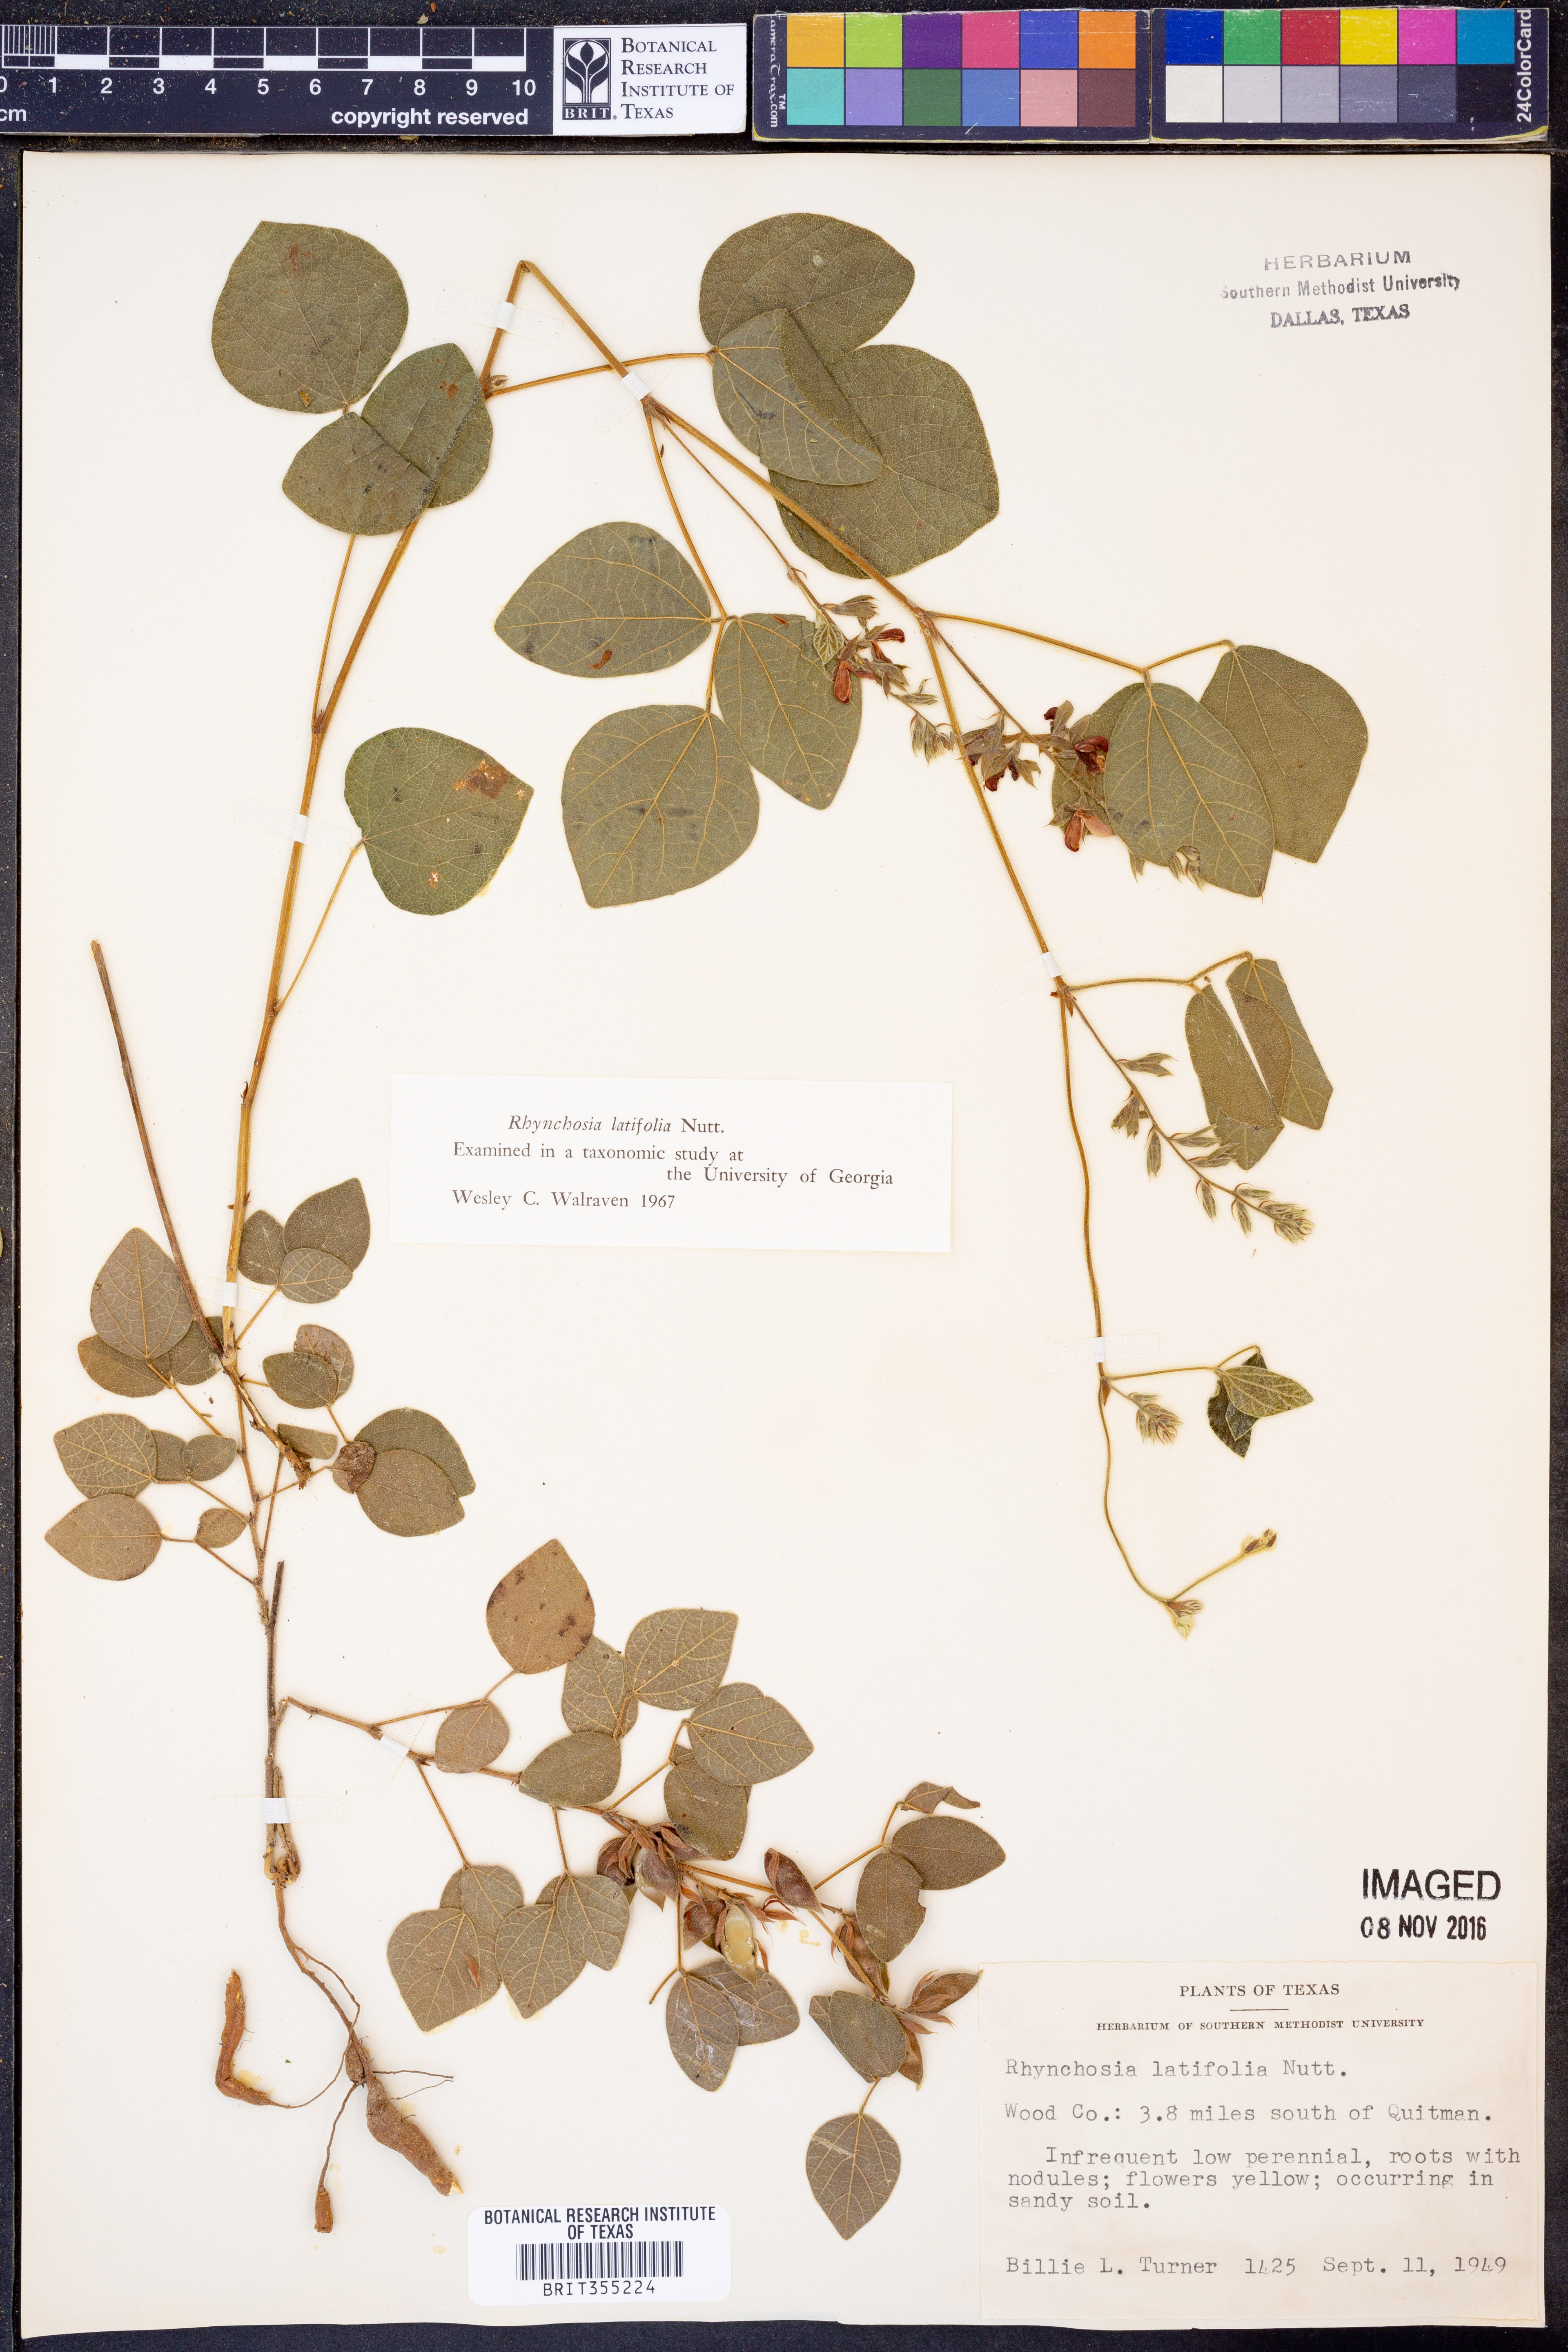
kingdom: Plantae
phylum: Tracheophyta
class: Magnoliopsida
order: Fabales
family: Fabaceae
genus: Rhynchosia
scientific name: Rhynchosia latifolia
